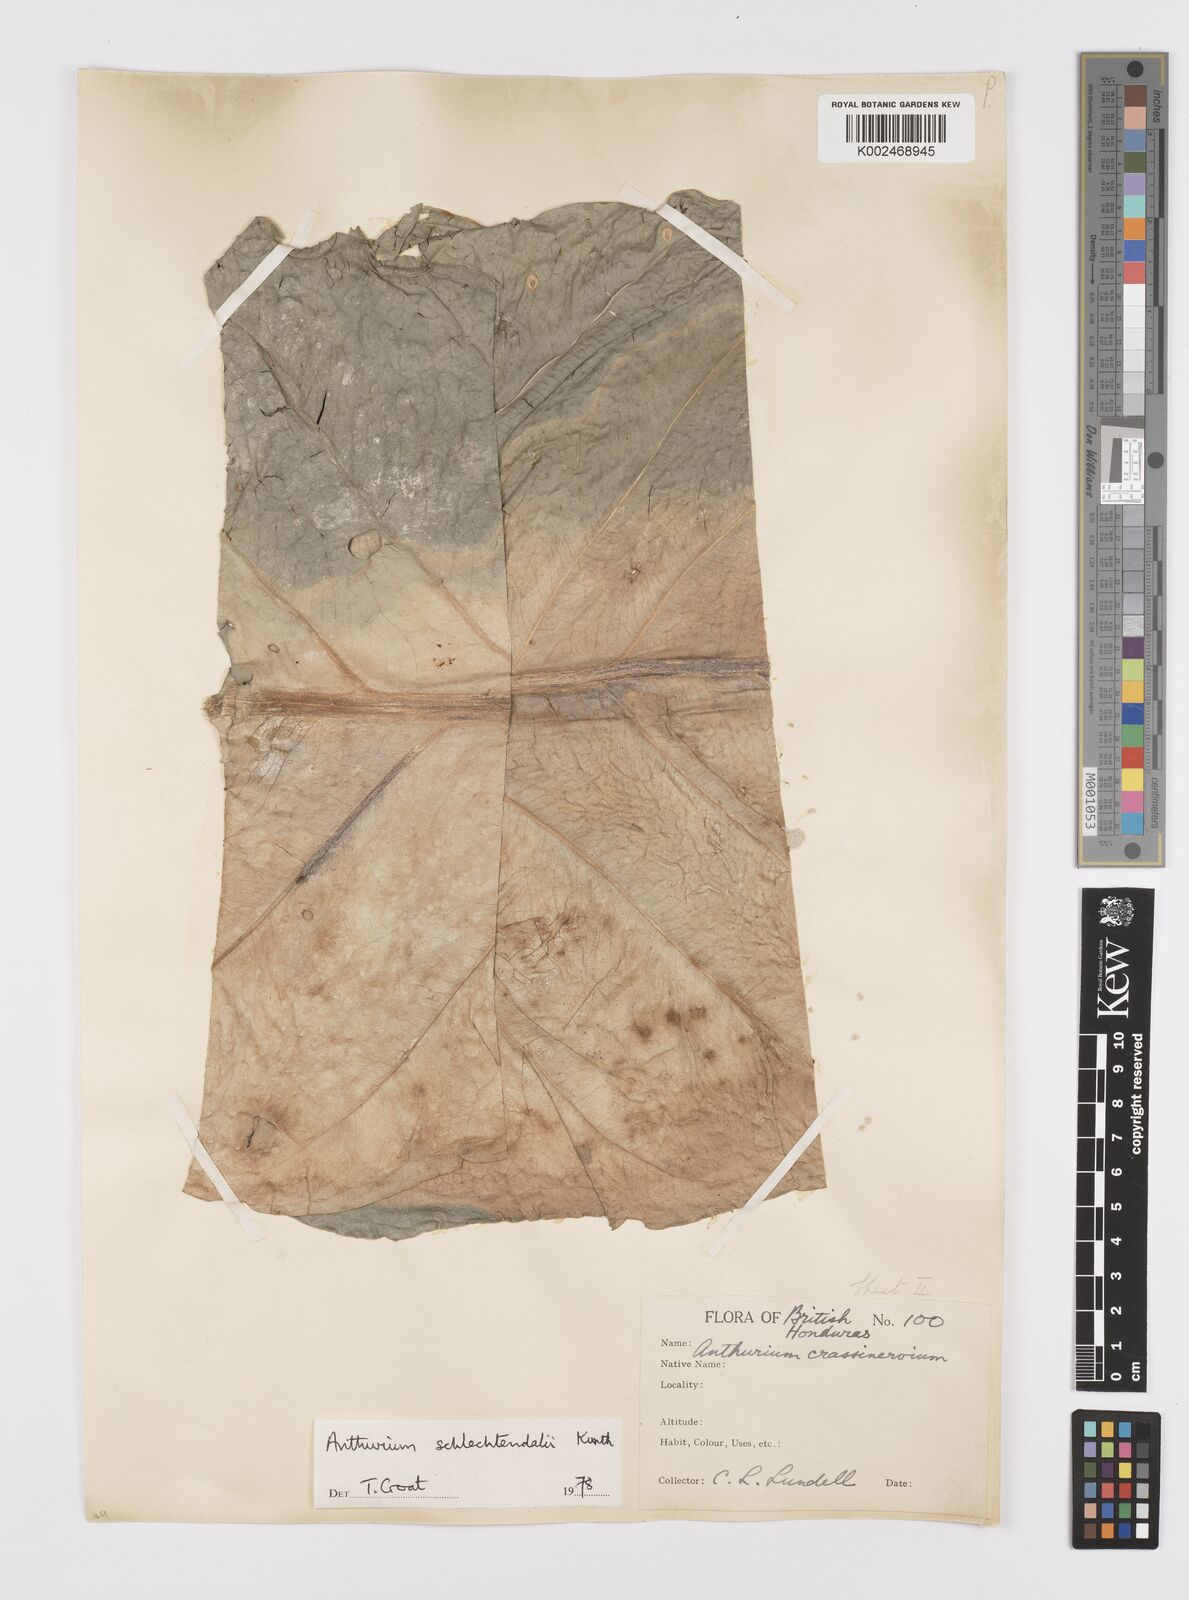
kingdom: Plantae
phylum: Tracheophyta
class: Liliopsida
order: Alismatales
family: Araceae
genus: Anthurium
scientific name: Anthurium schlechtendalii
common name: Laceleaf
